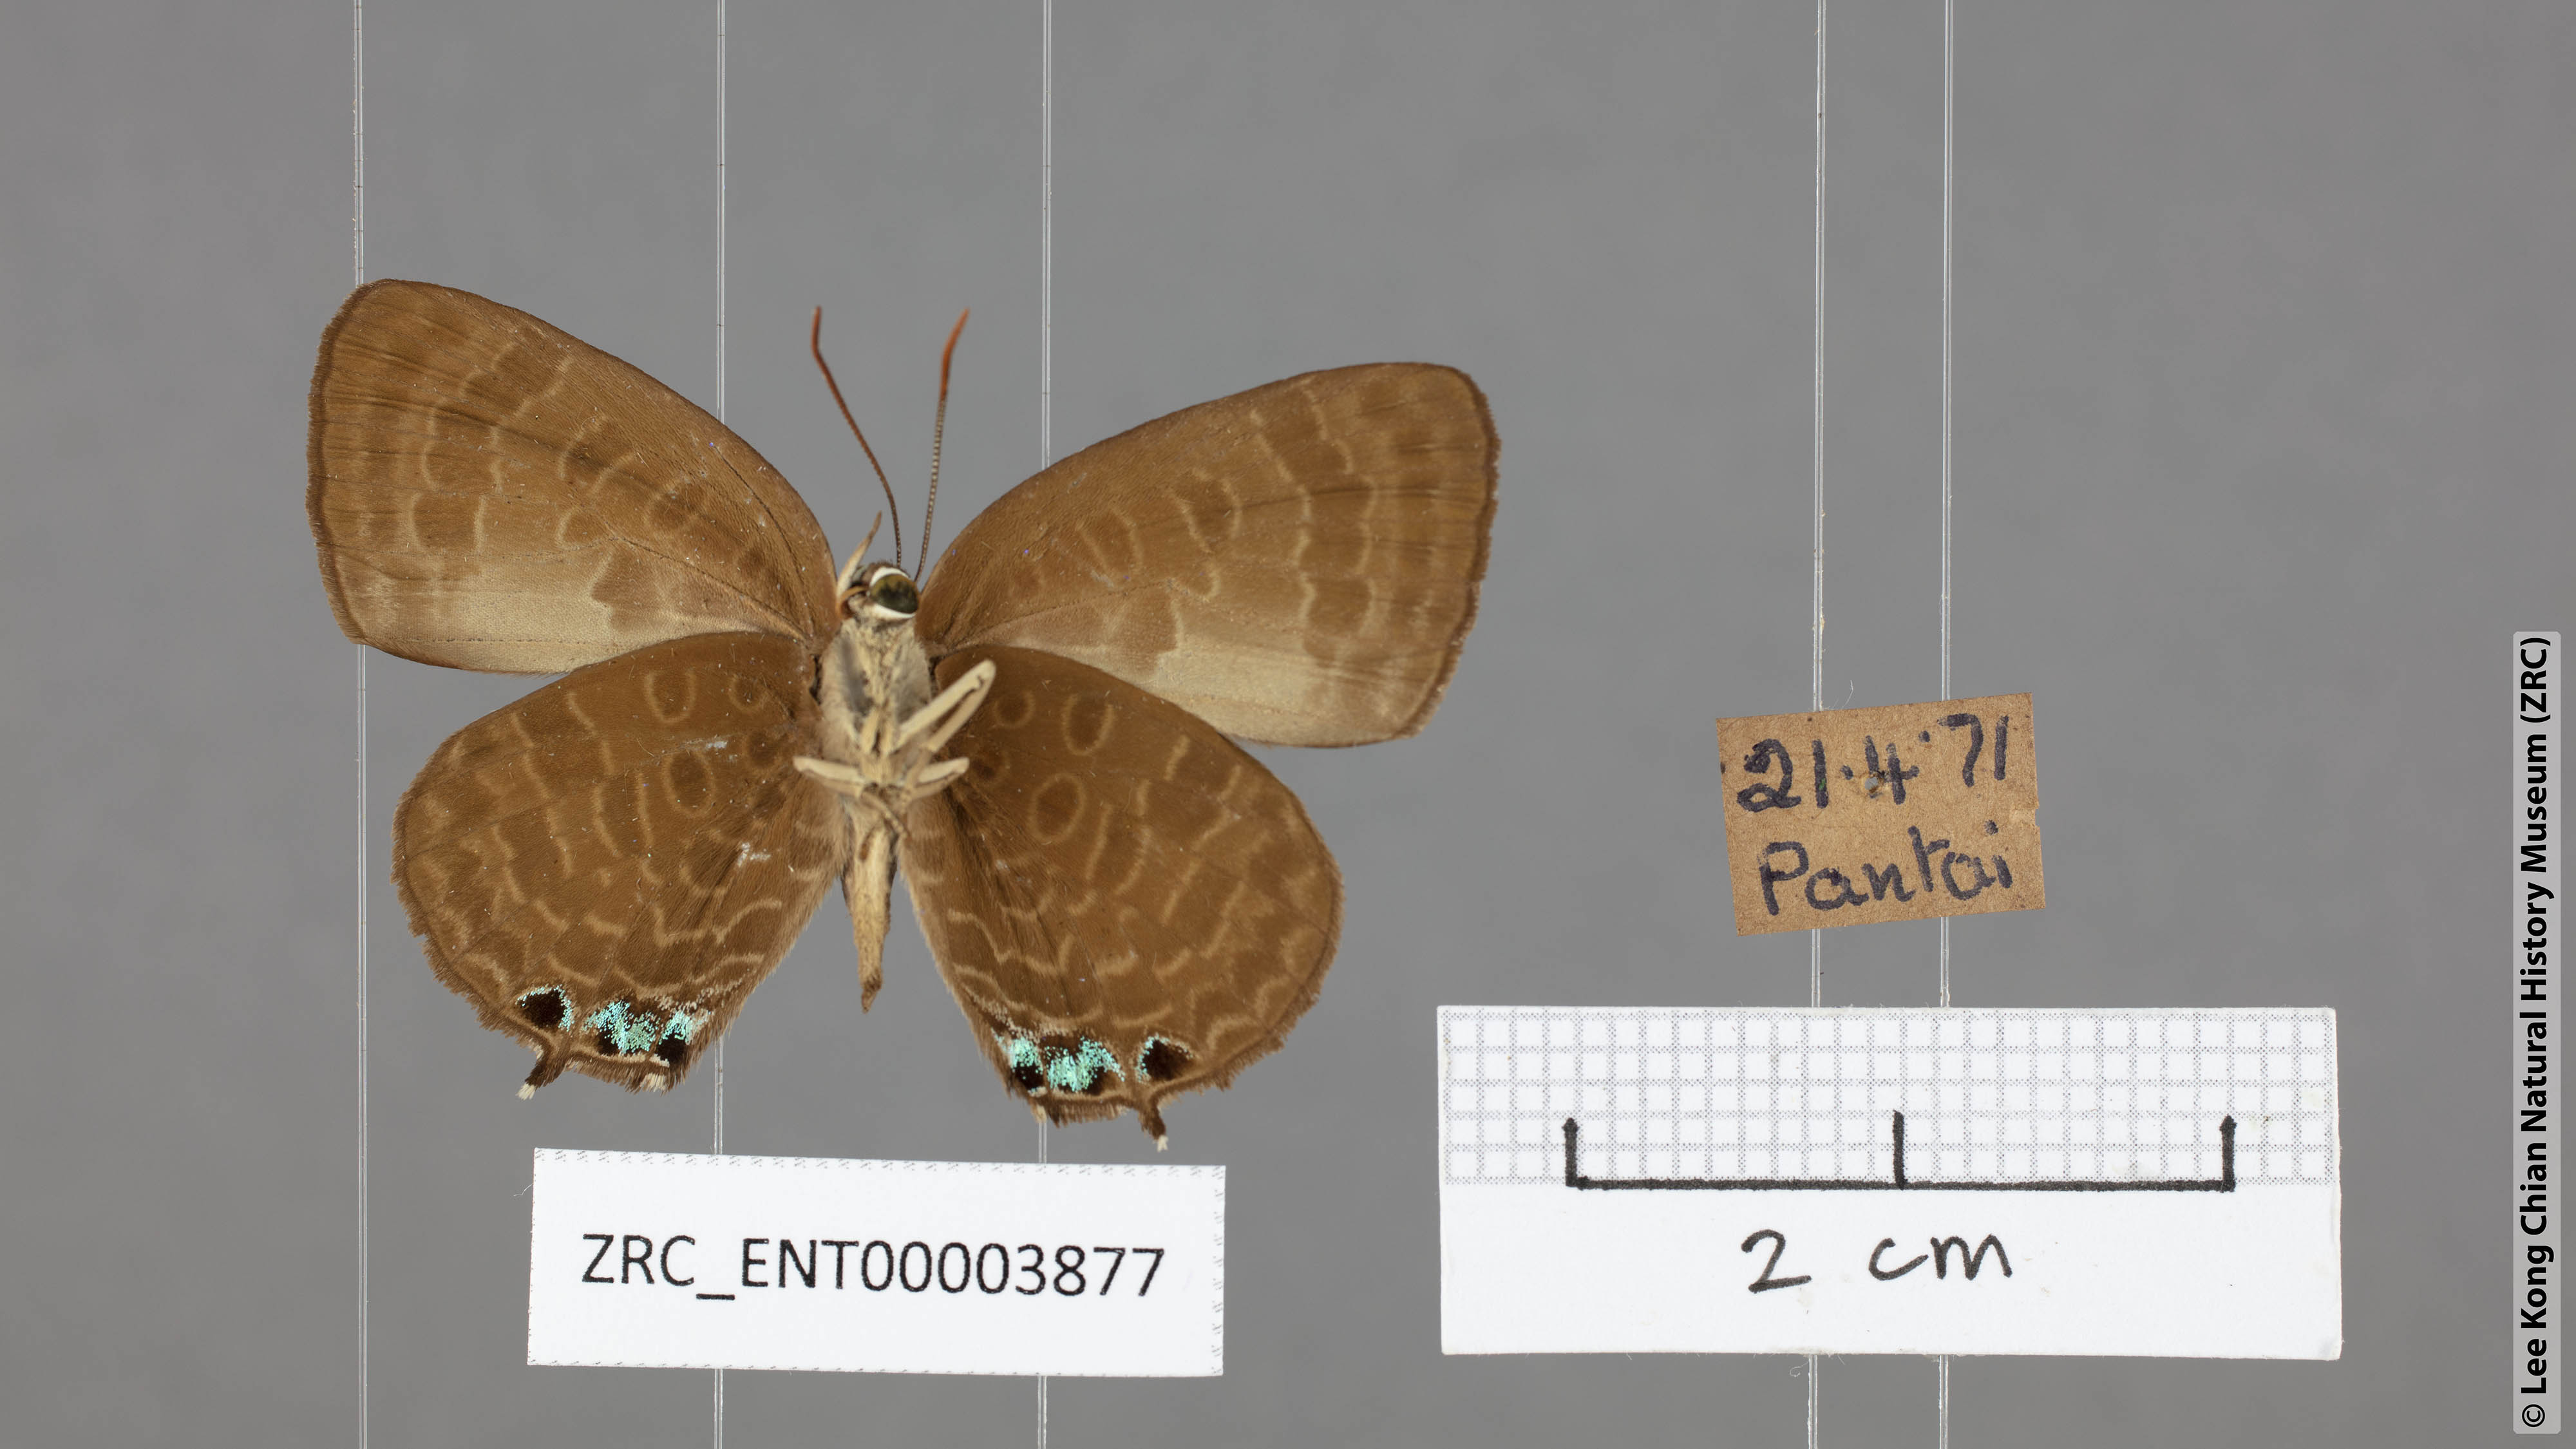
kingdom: Animalia
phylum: Arthropoda
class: Insecta
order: Lepidoptera
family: Lycaenidae
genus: Arhopala
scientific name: Arhopala aurea
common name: Long-celled oakblue
